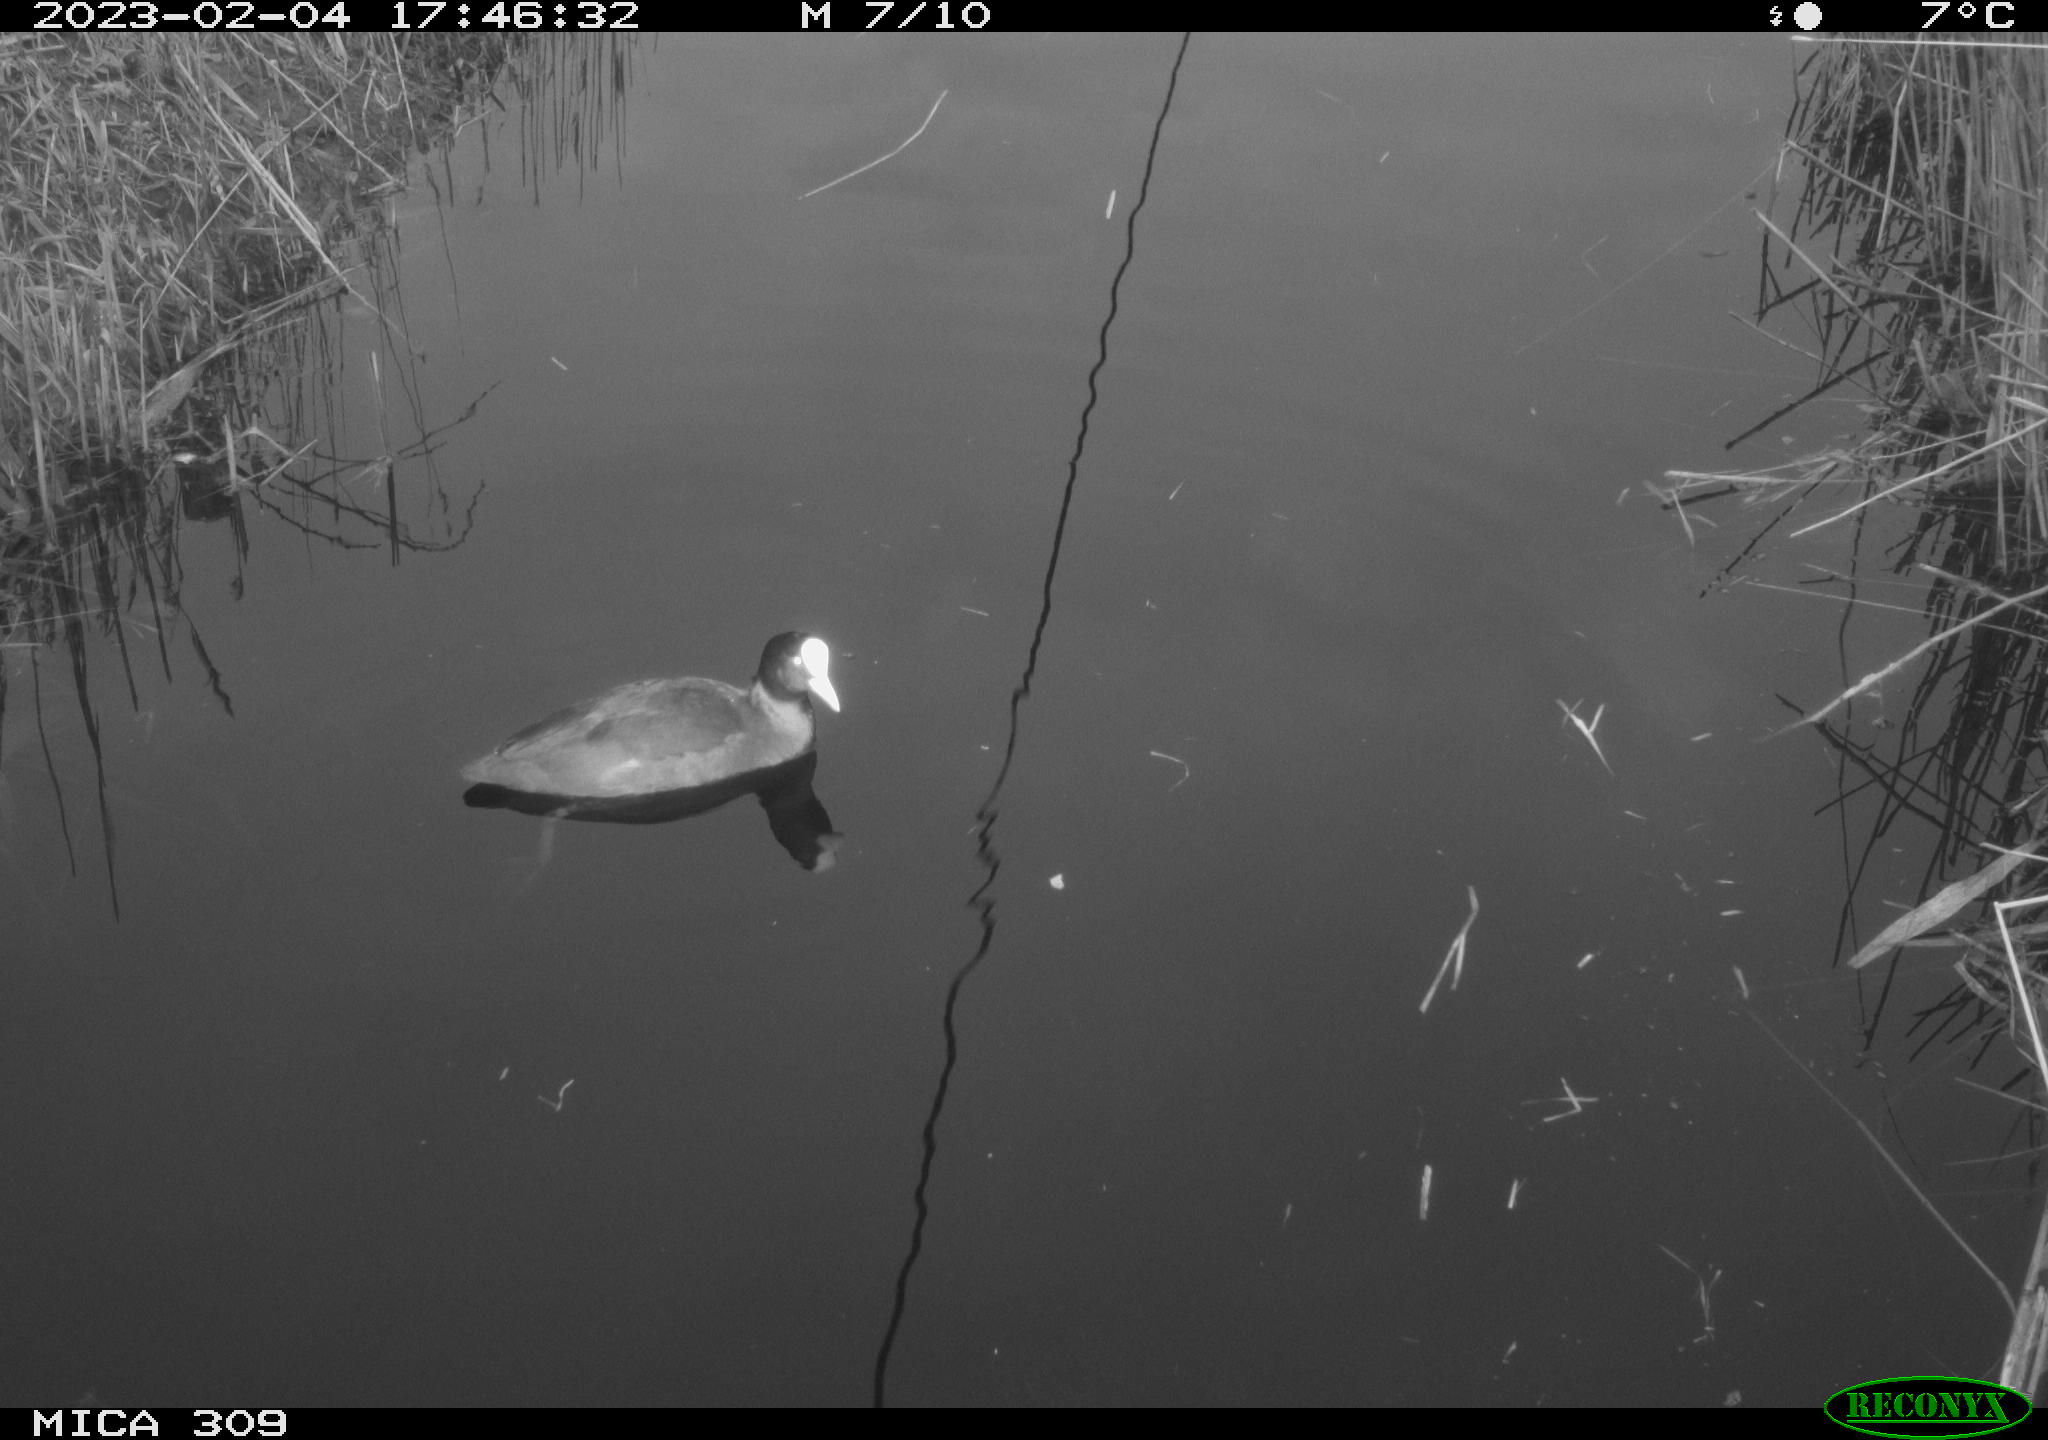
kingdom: Animalia
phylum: Chordata
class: Aves
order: Gruiformes
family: Rallidae
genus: Fulica
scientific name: Fulica atra
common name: Eurasian coot
